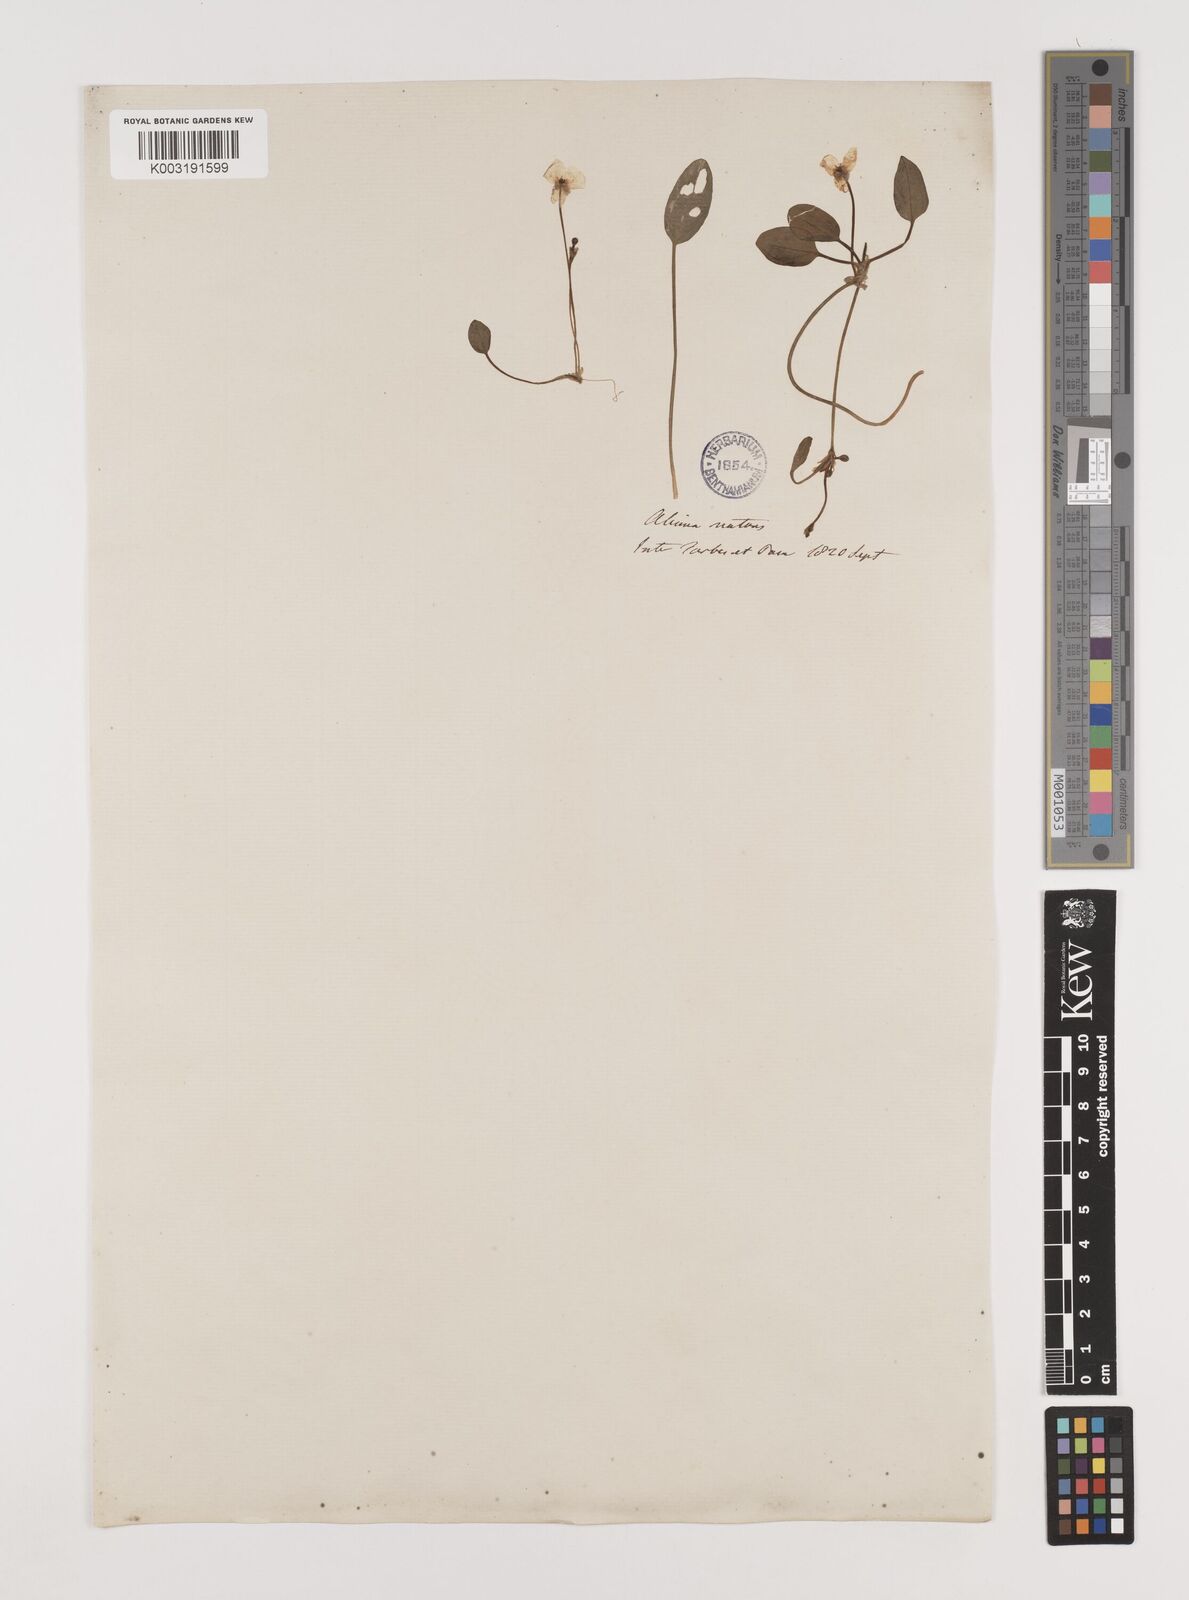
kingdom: Plantae
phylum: Tracheophyta
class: Liliopsida
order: Alismatales
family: Alismataceae
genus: Luronium
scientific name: Luronium natans
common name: Floating water-plantain
